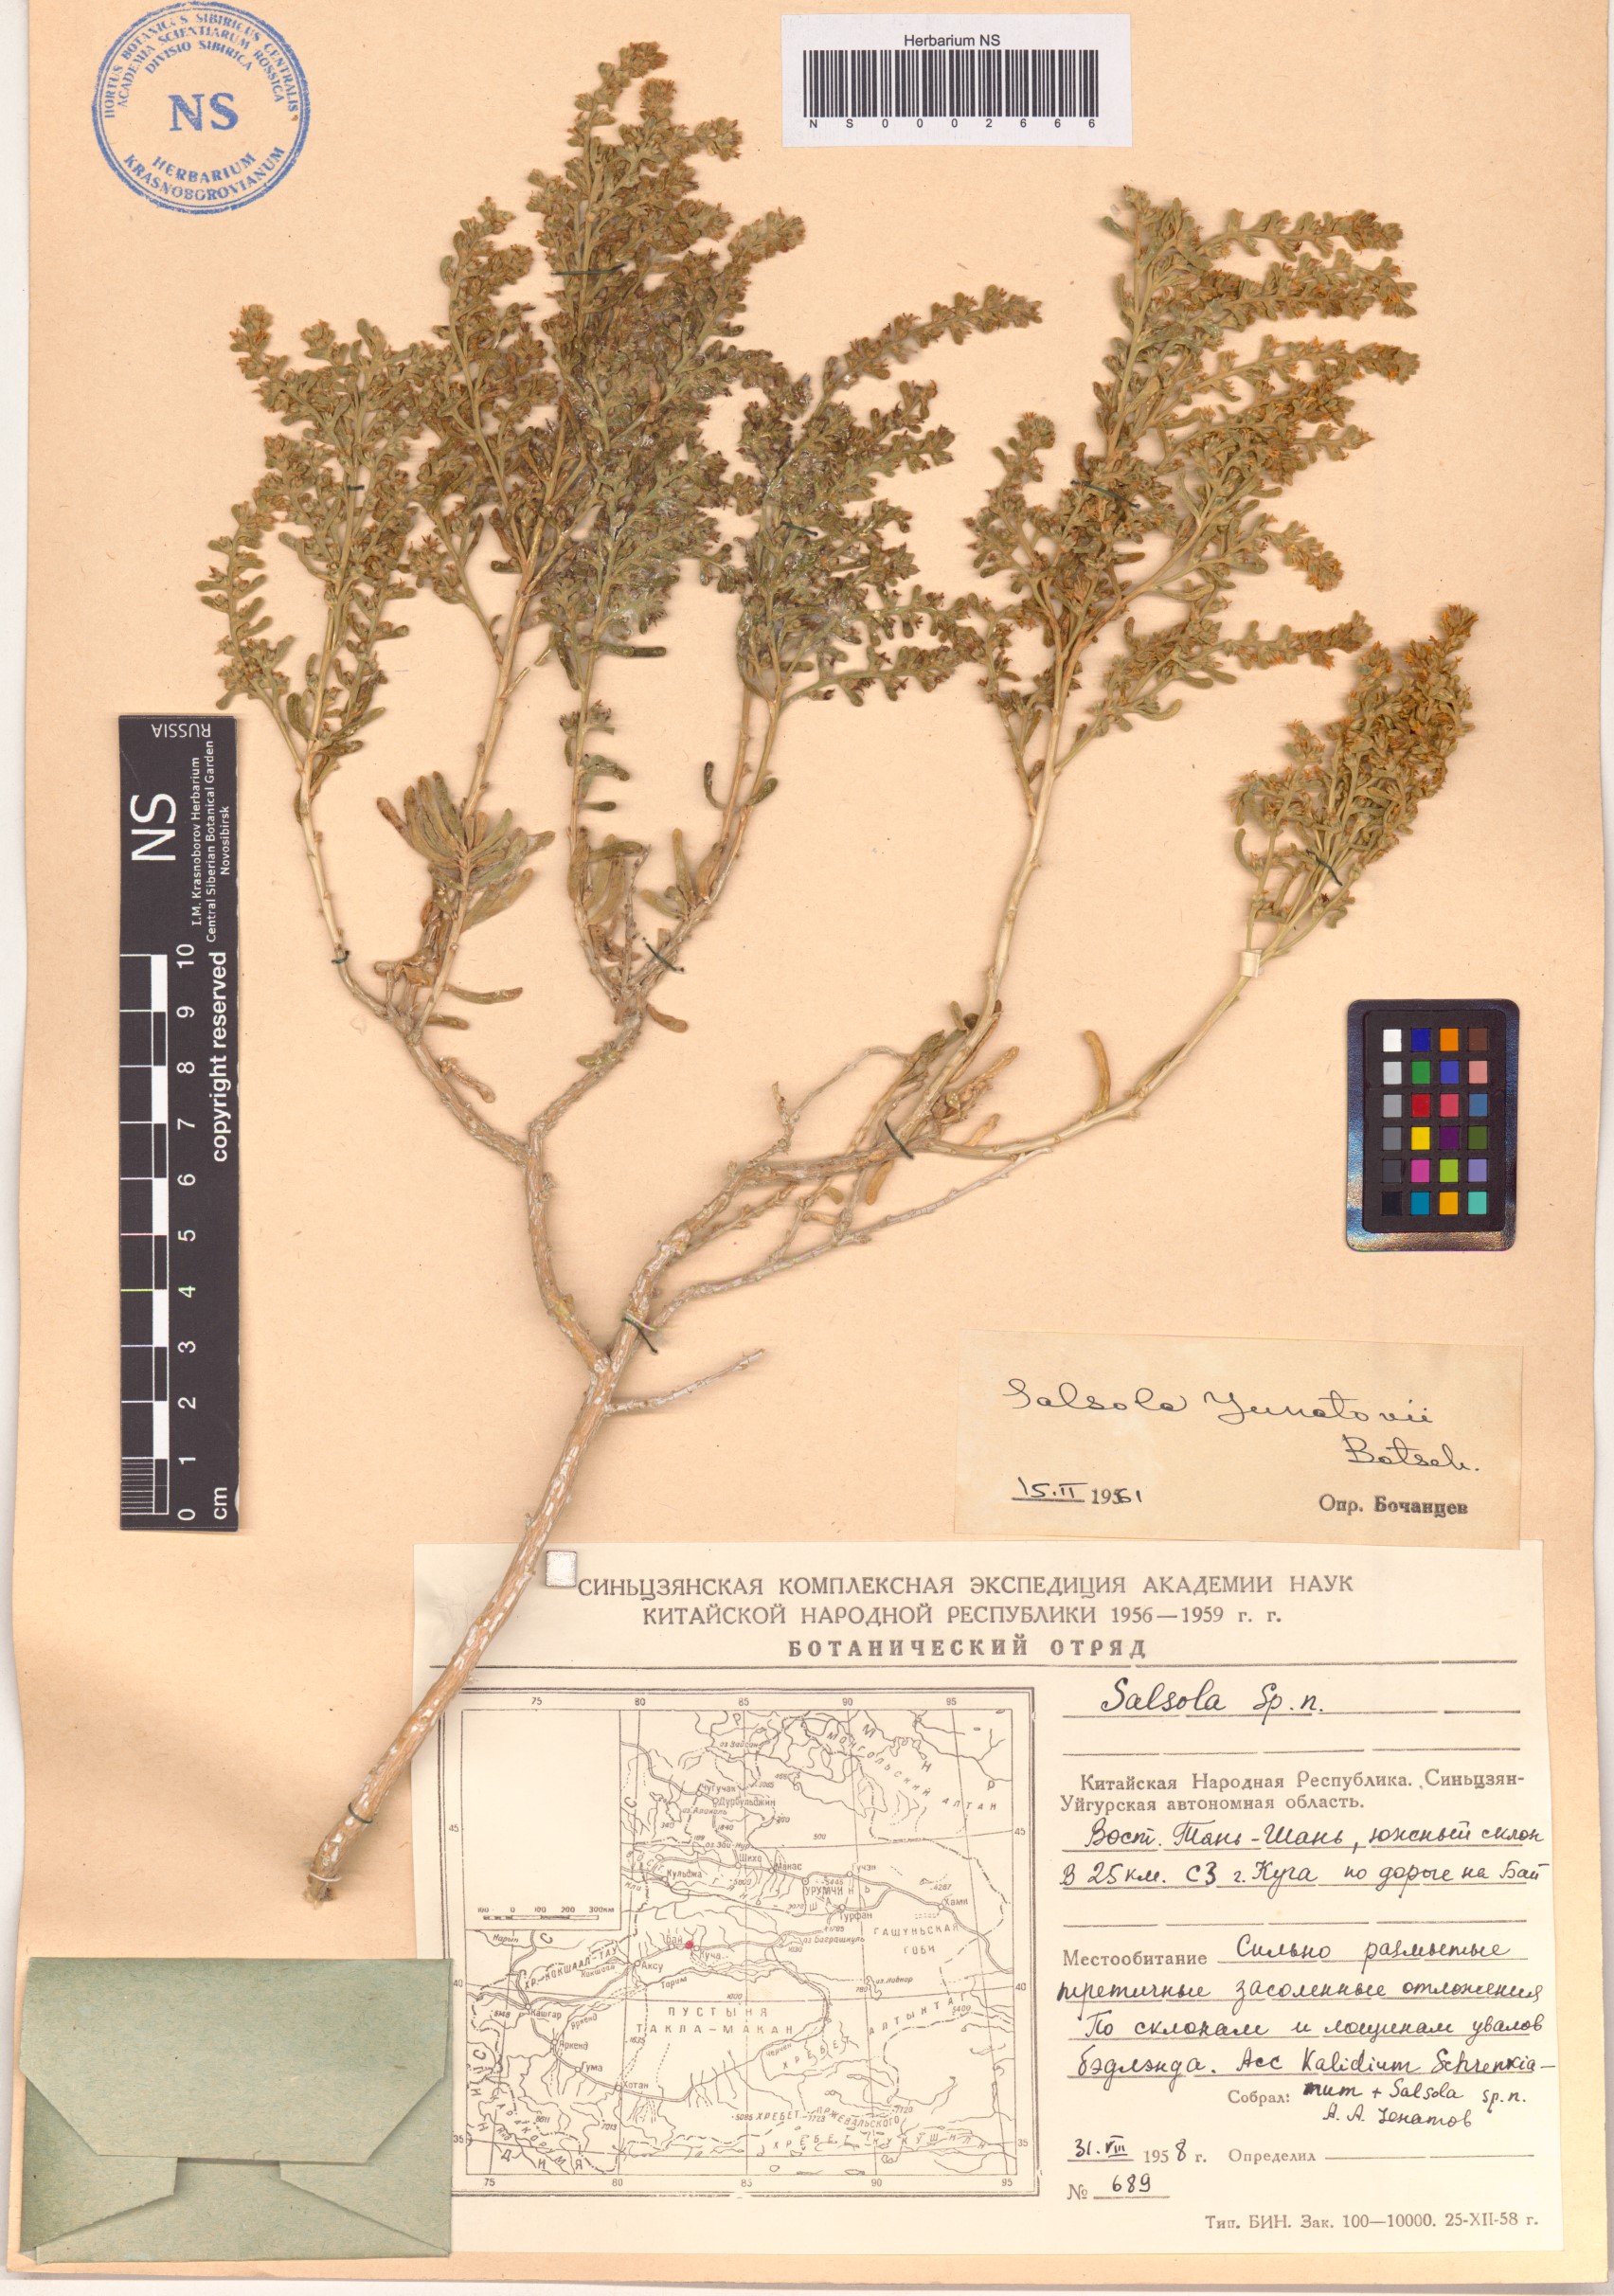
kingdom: Plantae
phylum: Tracheophyta
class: Magnoliopsida
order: Caryophyllales
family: Amaranthaceae
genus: Salsola
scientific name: Salsola junatovii
